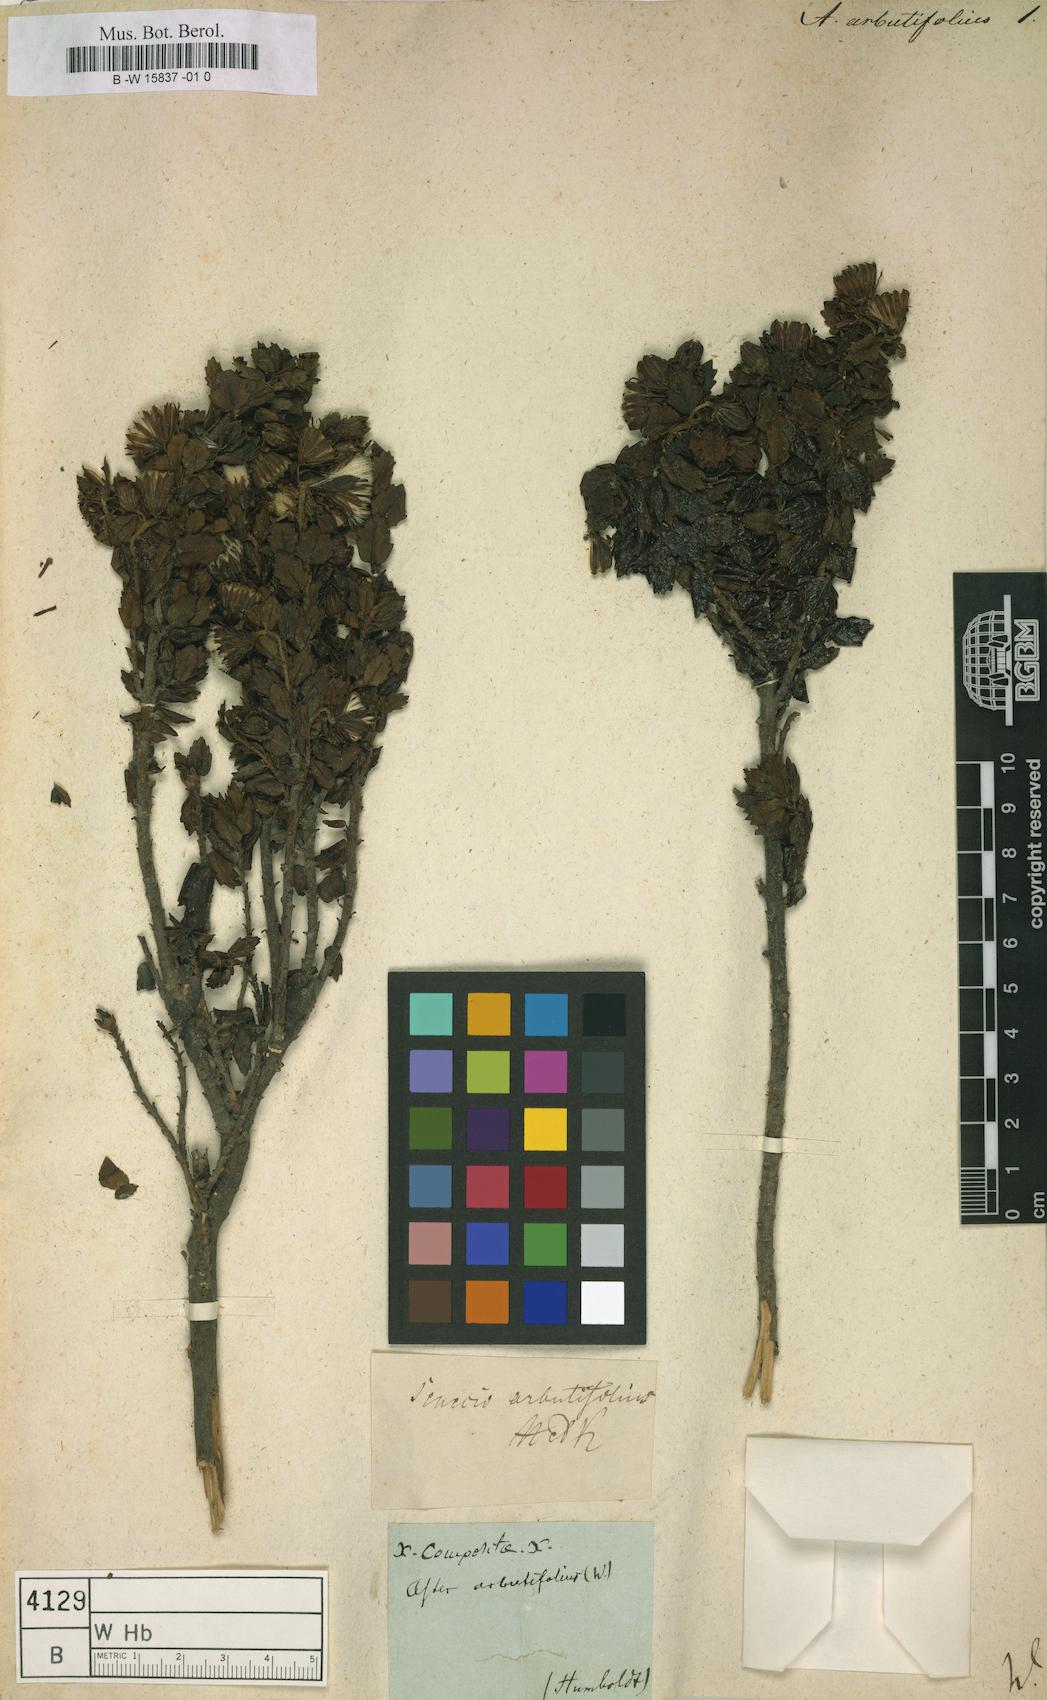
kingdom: Plantae
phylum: Tracheophyta
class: Magnoliopsida
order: Asterales
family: Asteraceae
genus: Aster
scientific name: Aster
